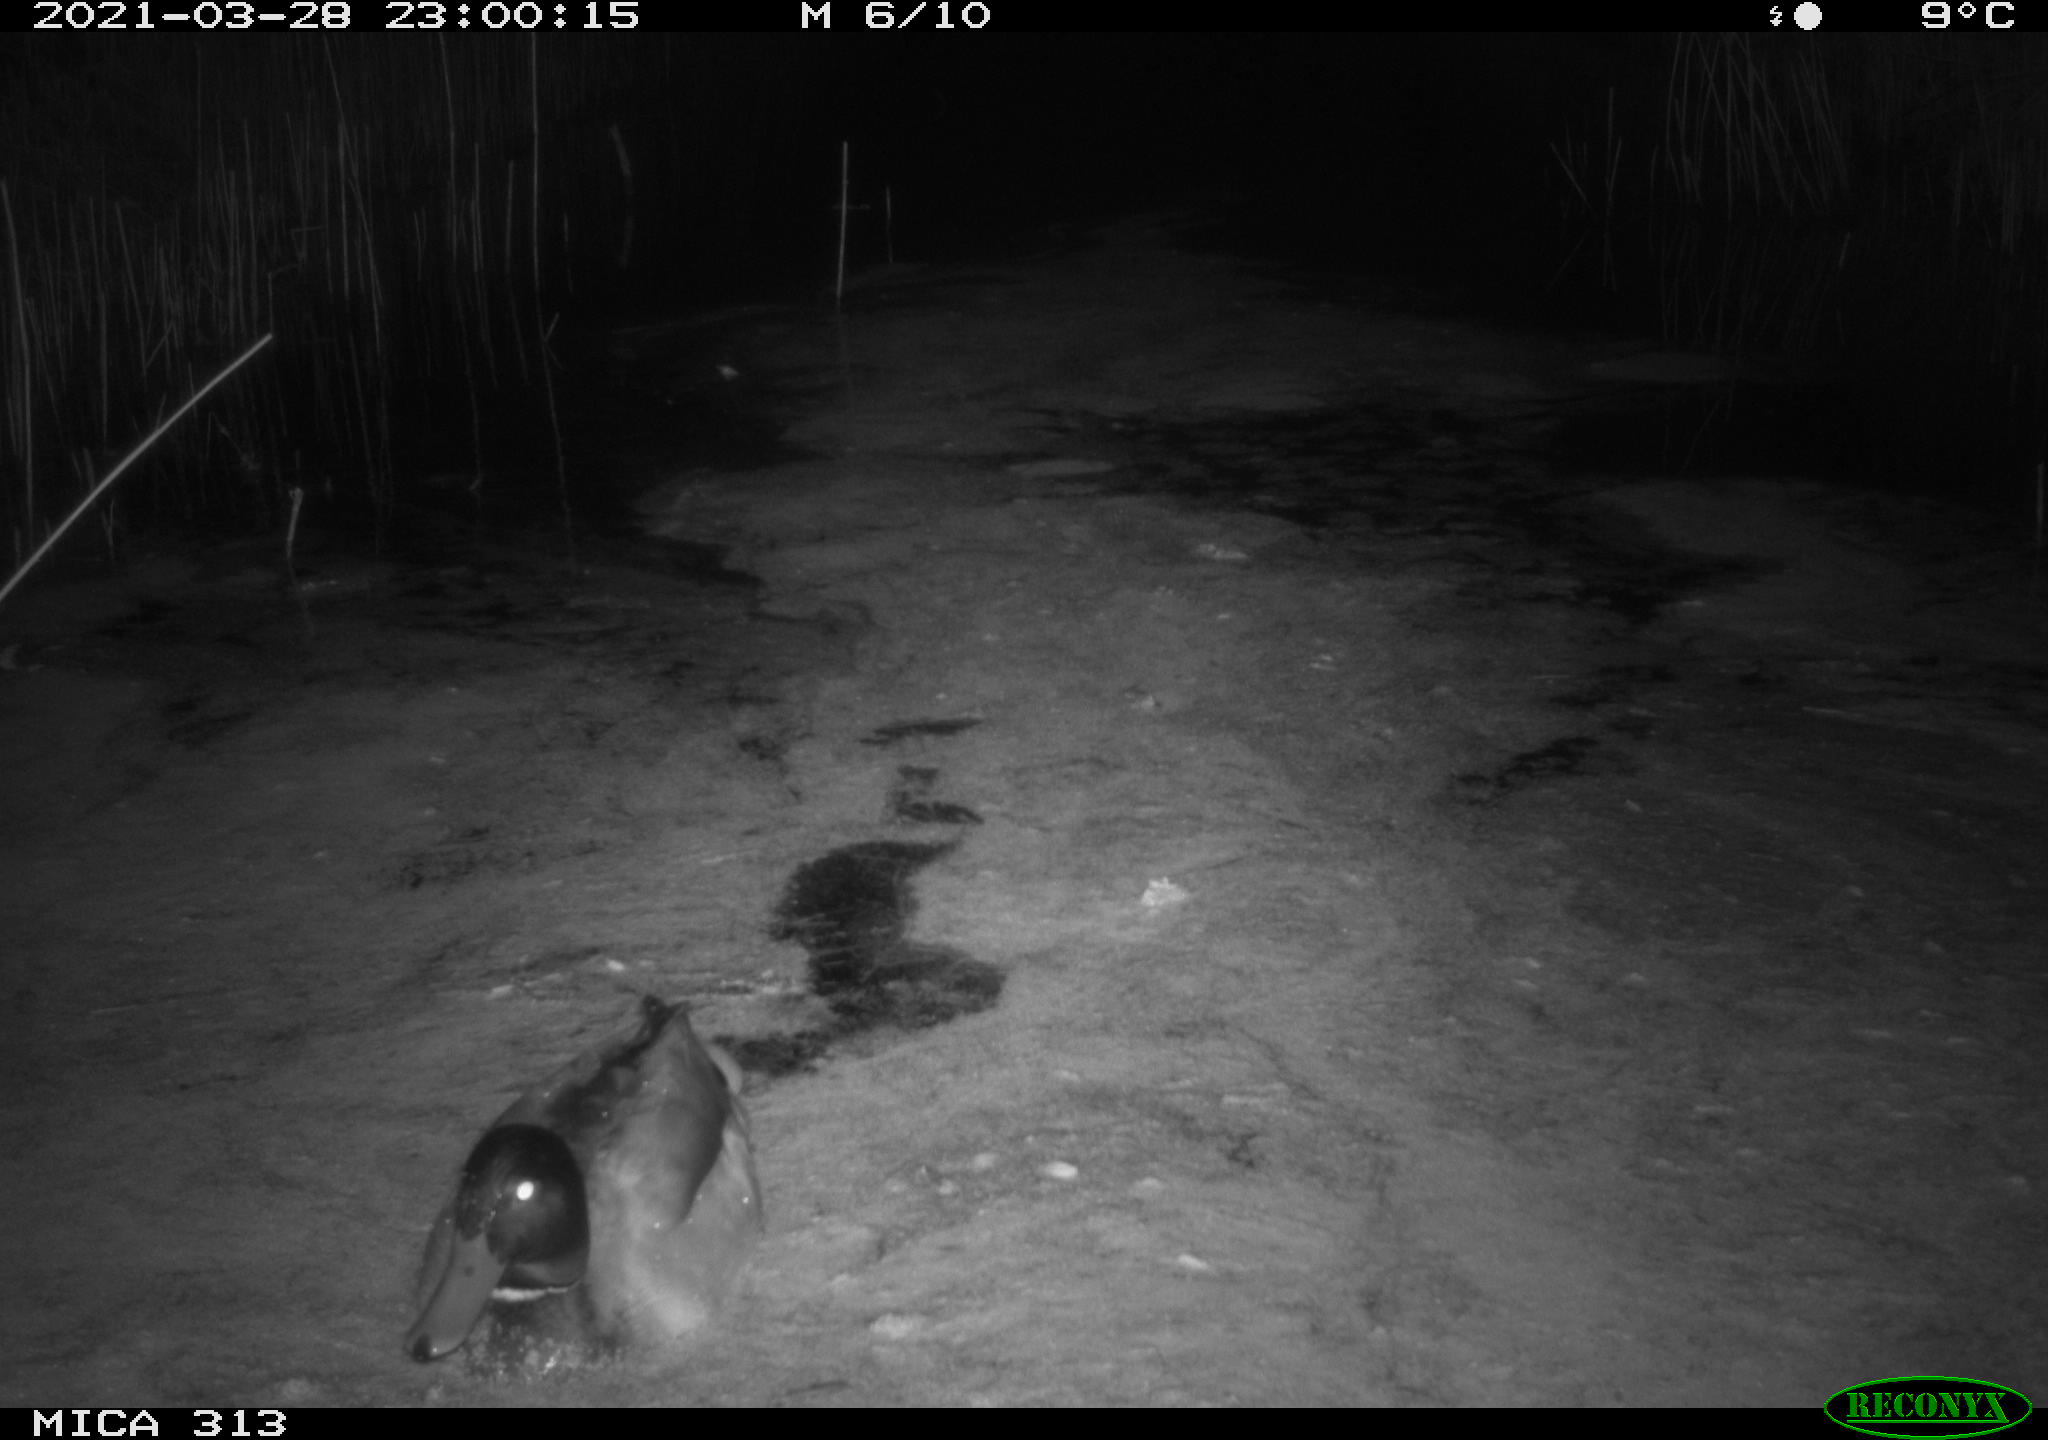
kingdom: Animalia
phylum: Chordata
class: Aves
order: Anseriformes
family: Anatidae
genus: Anas
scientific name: Anas platyrhynchos
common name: Mallard
